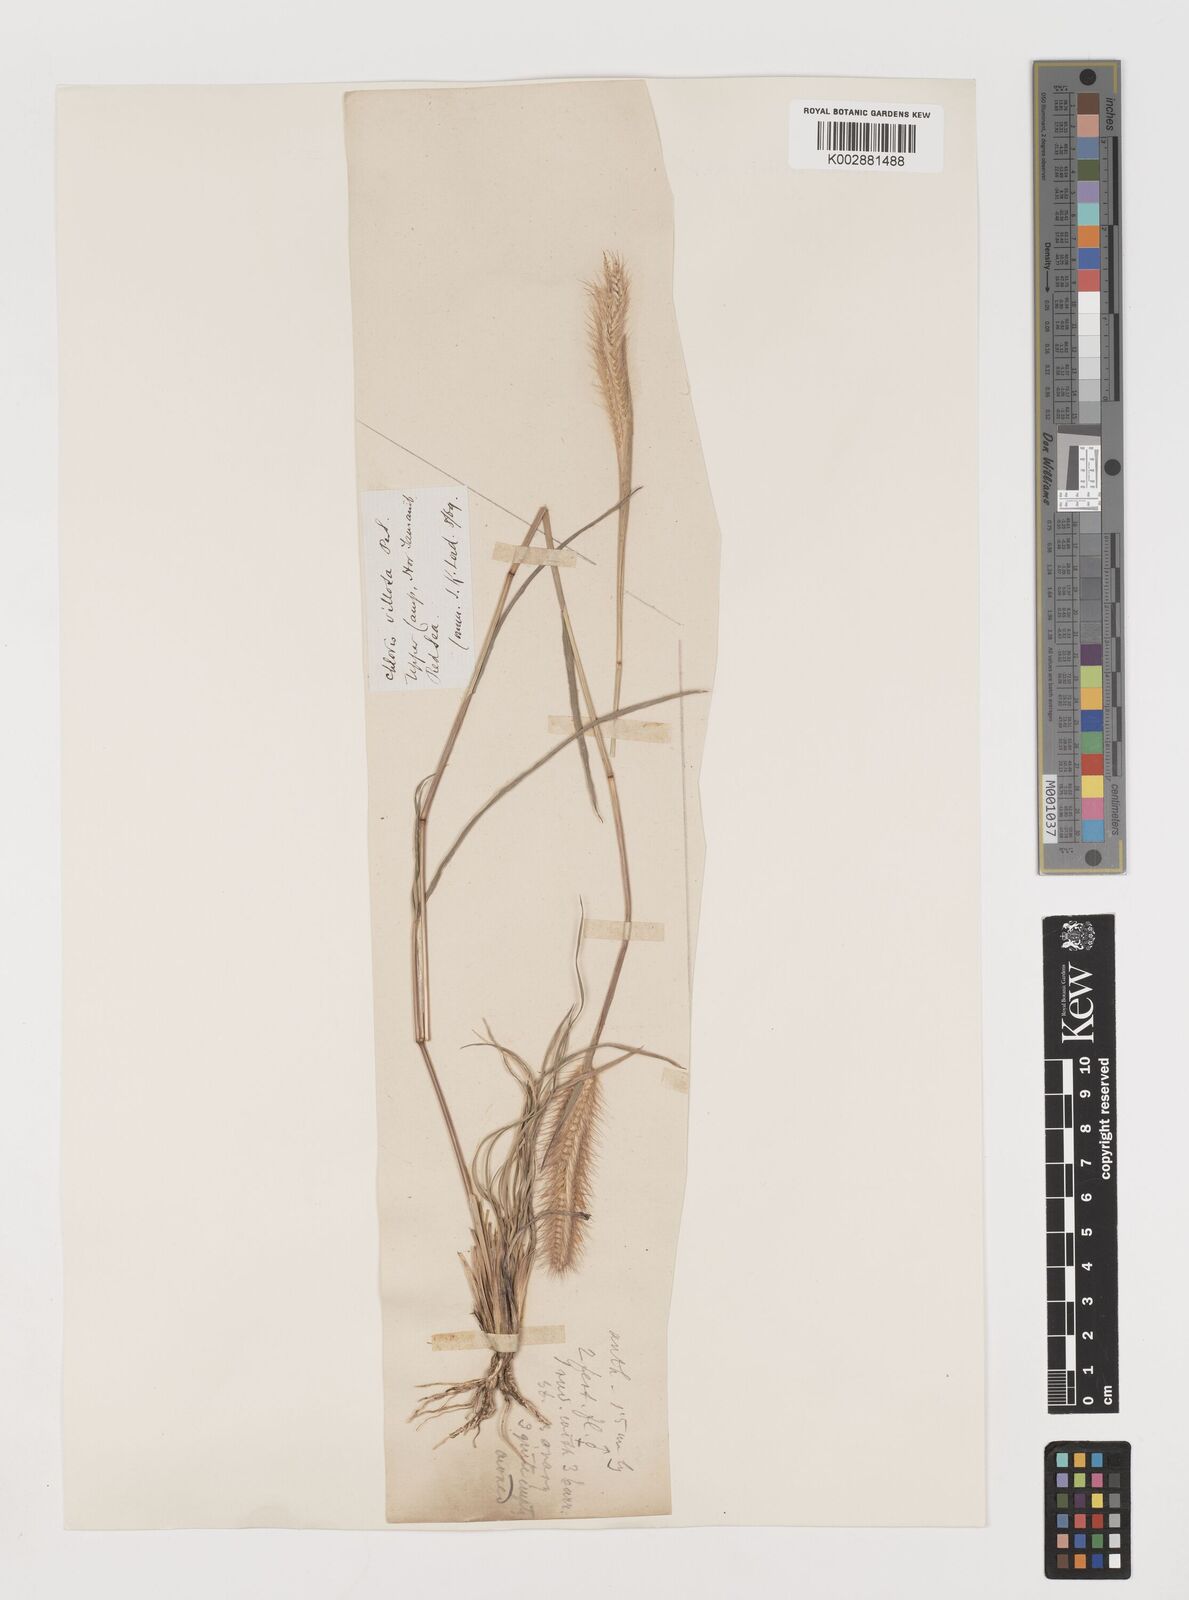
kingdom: Plantae
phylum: Tracheophyta
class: Liliopsida
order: Poales
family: Poaceae
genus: Tetrapogon
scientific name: Tetrapogon villosus
